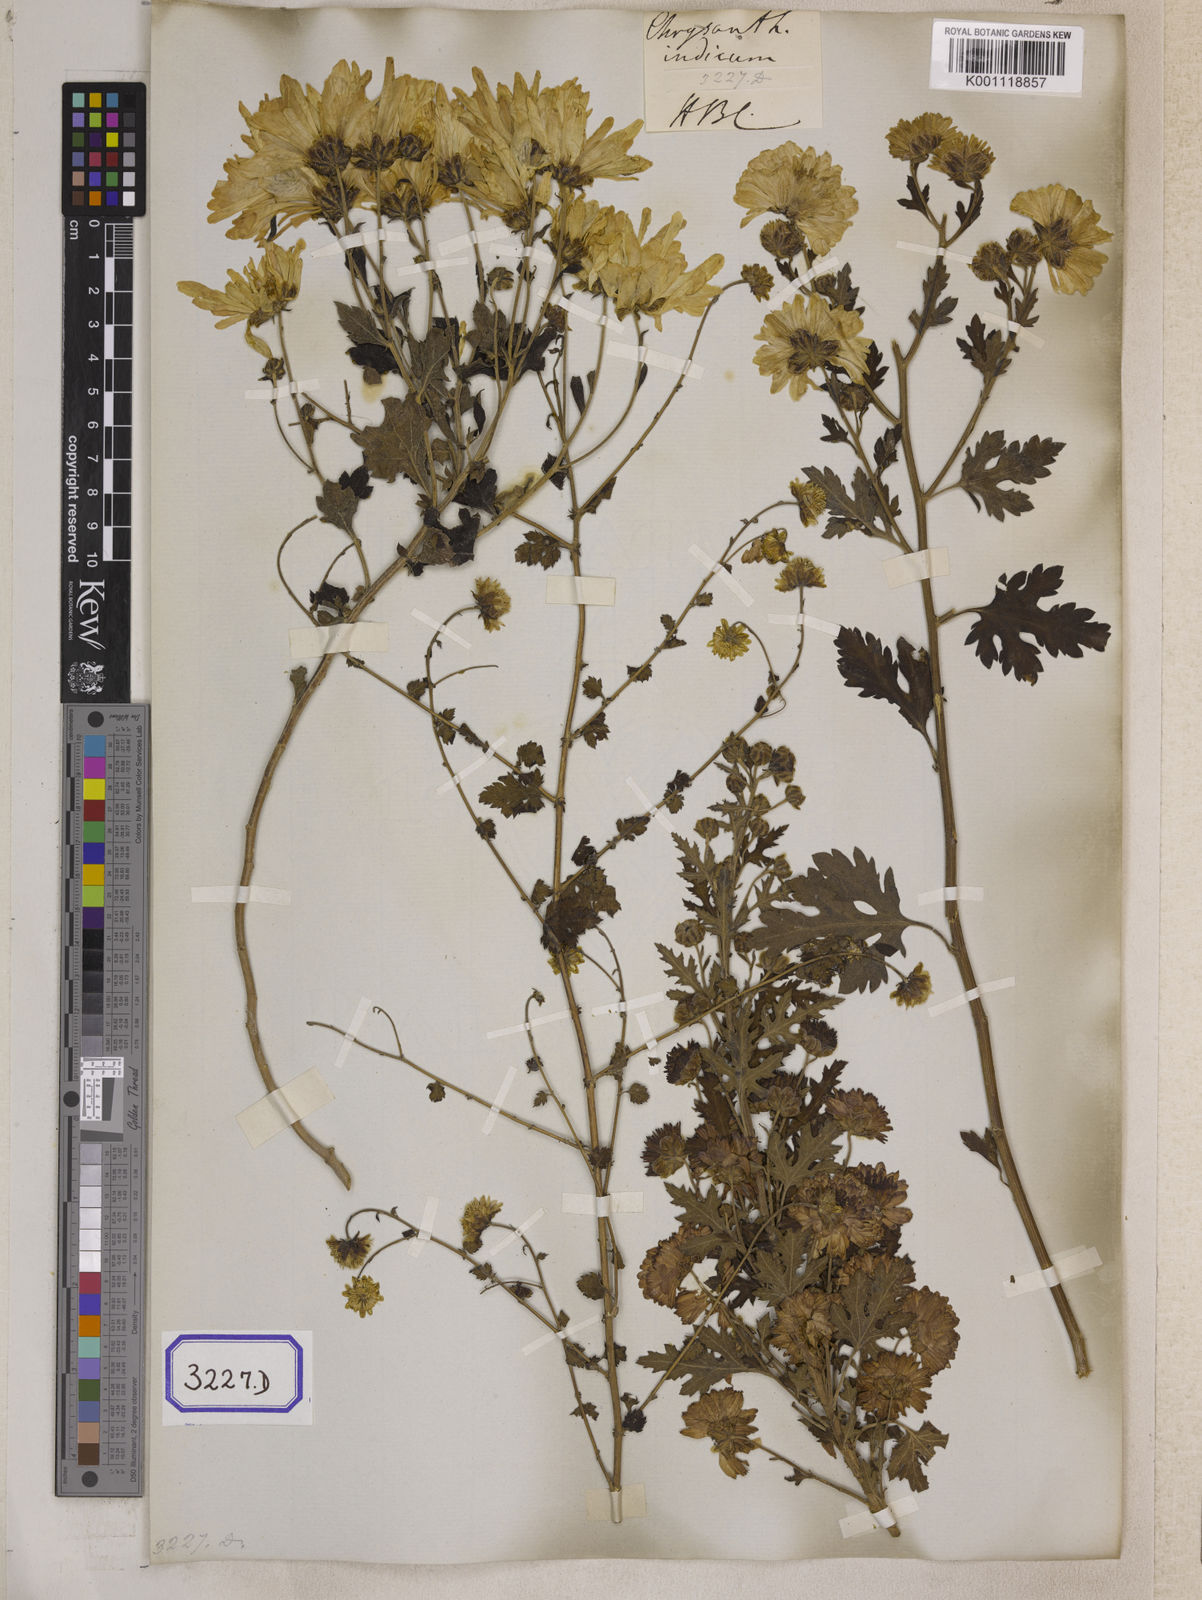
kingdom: Plantae
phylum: Tracheophyta
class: Magnoliopsida
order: Asterales
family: Asteraceae
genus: Chrysanthemum
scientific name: Chrysanthemum indicum
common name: Indian chrysanthemum
